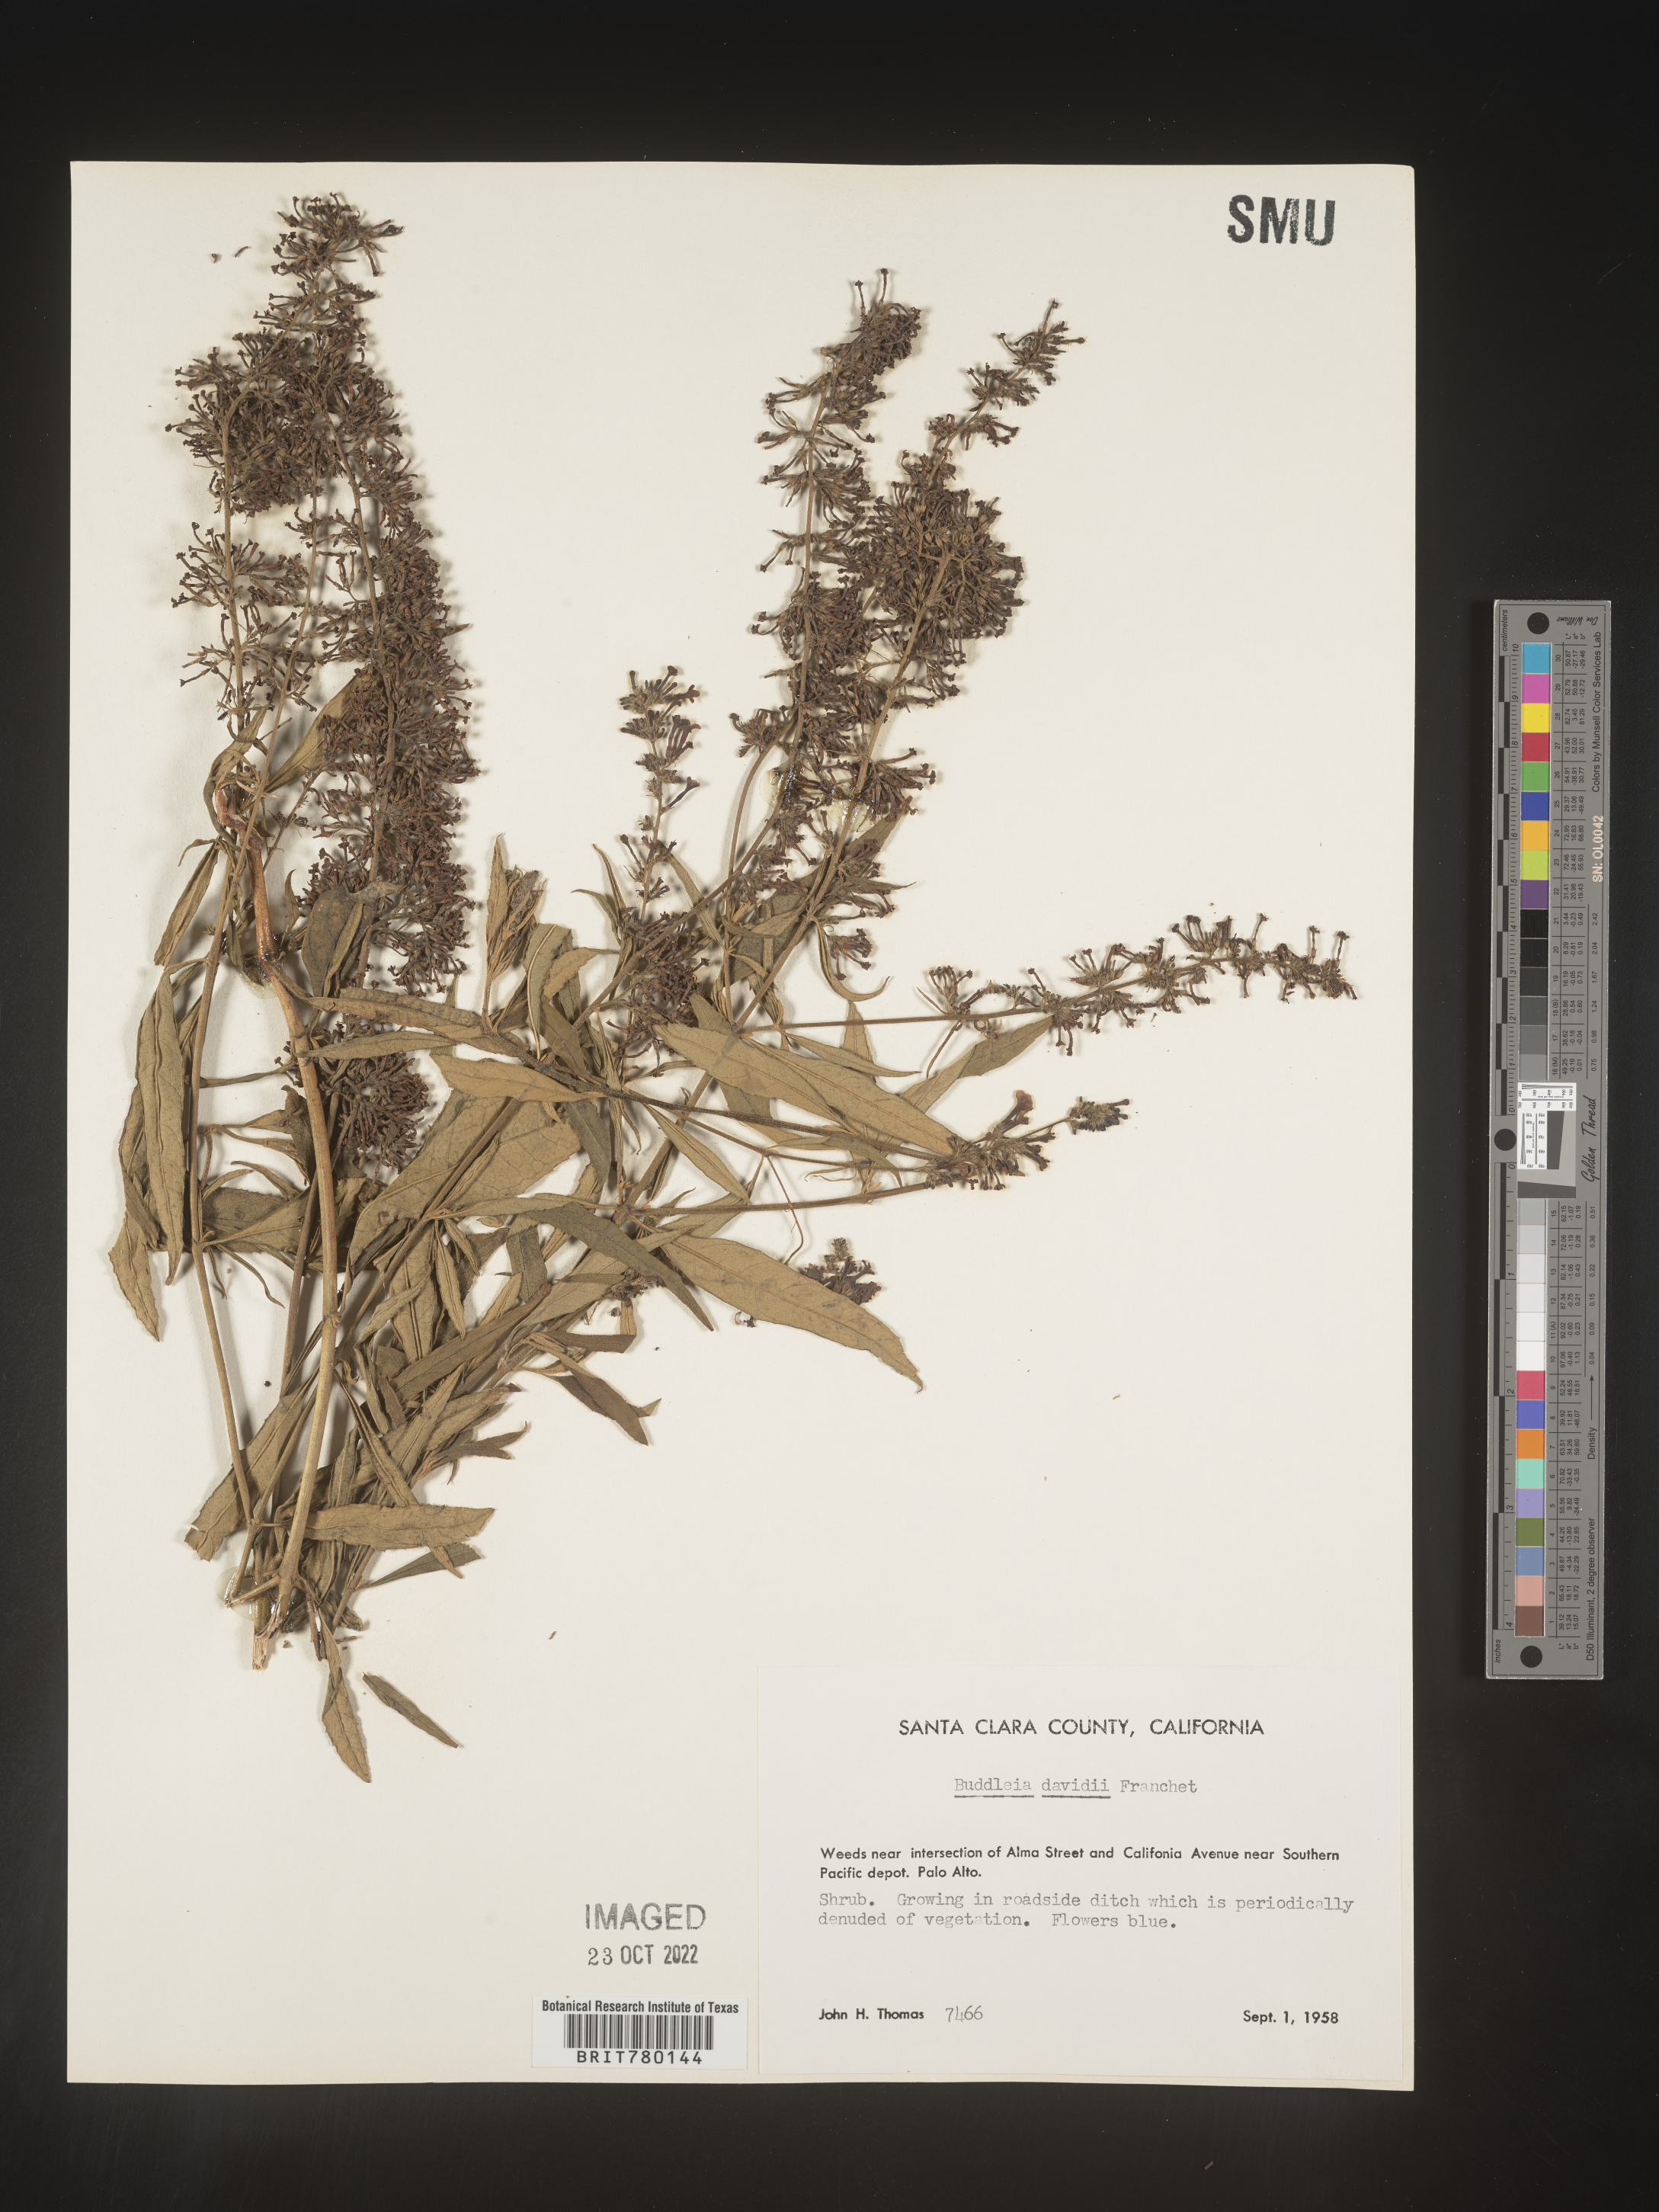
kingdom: Plantae
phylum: Tracheophyta
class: Magnoliopsida
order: Lamiales
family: Scrophulariaceae
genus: Buddleja
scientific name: Buddleja
